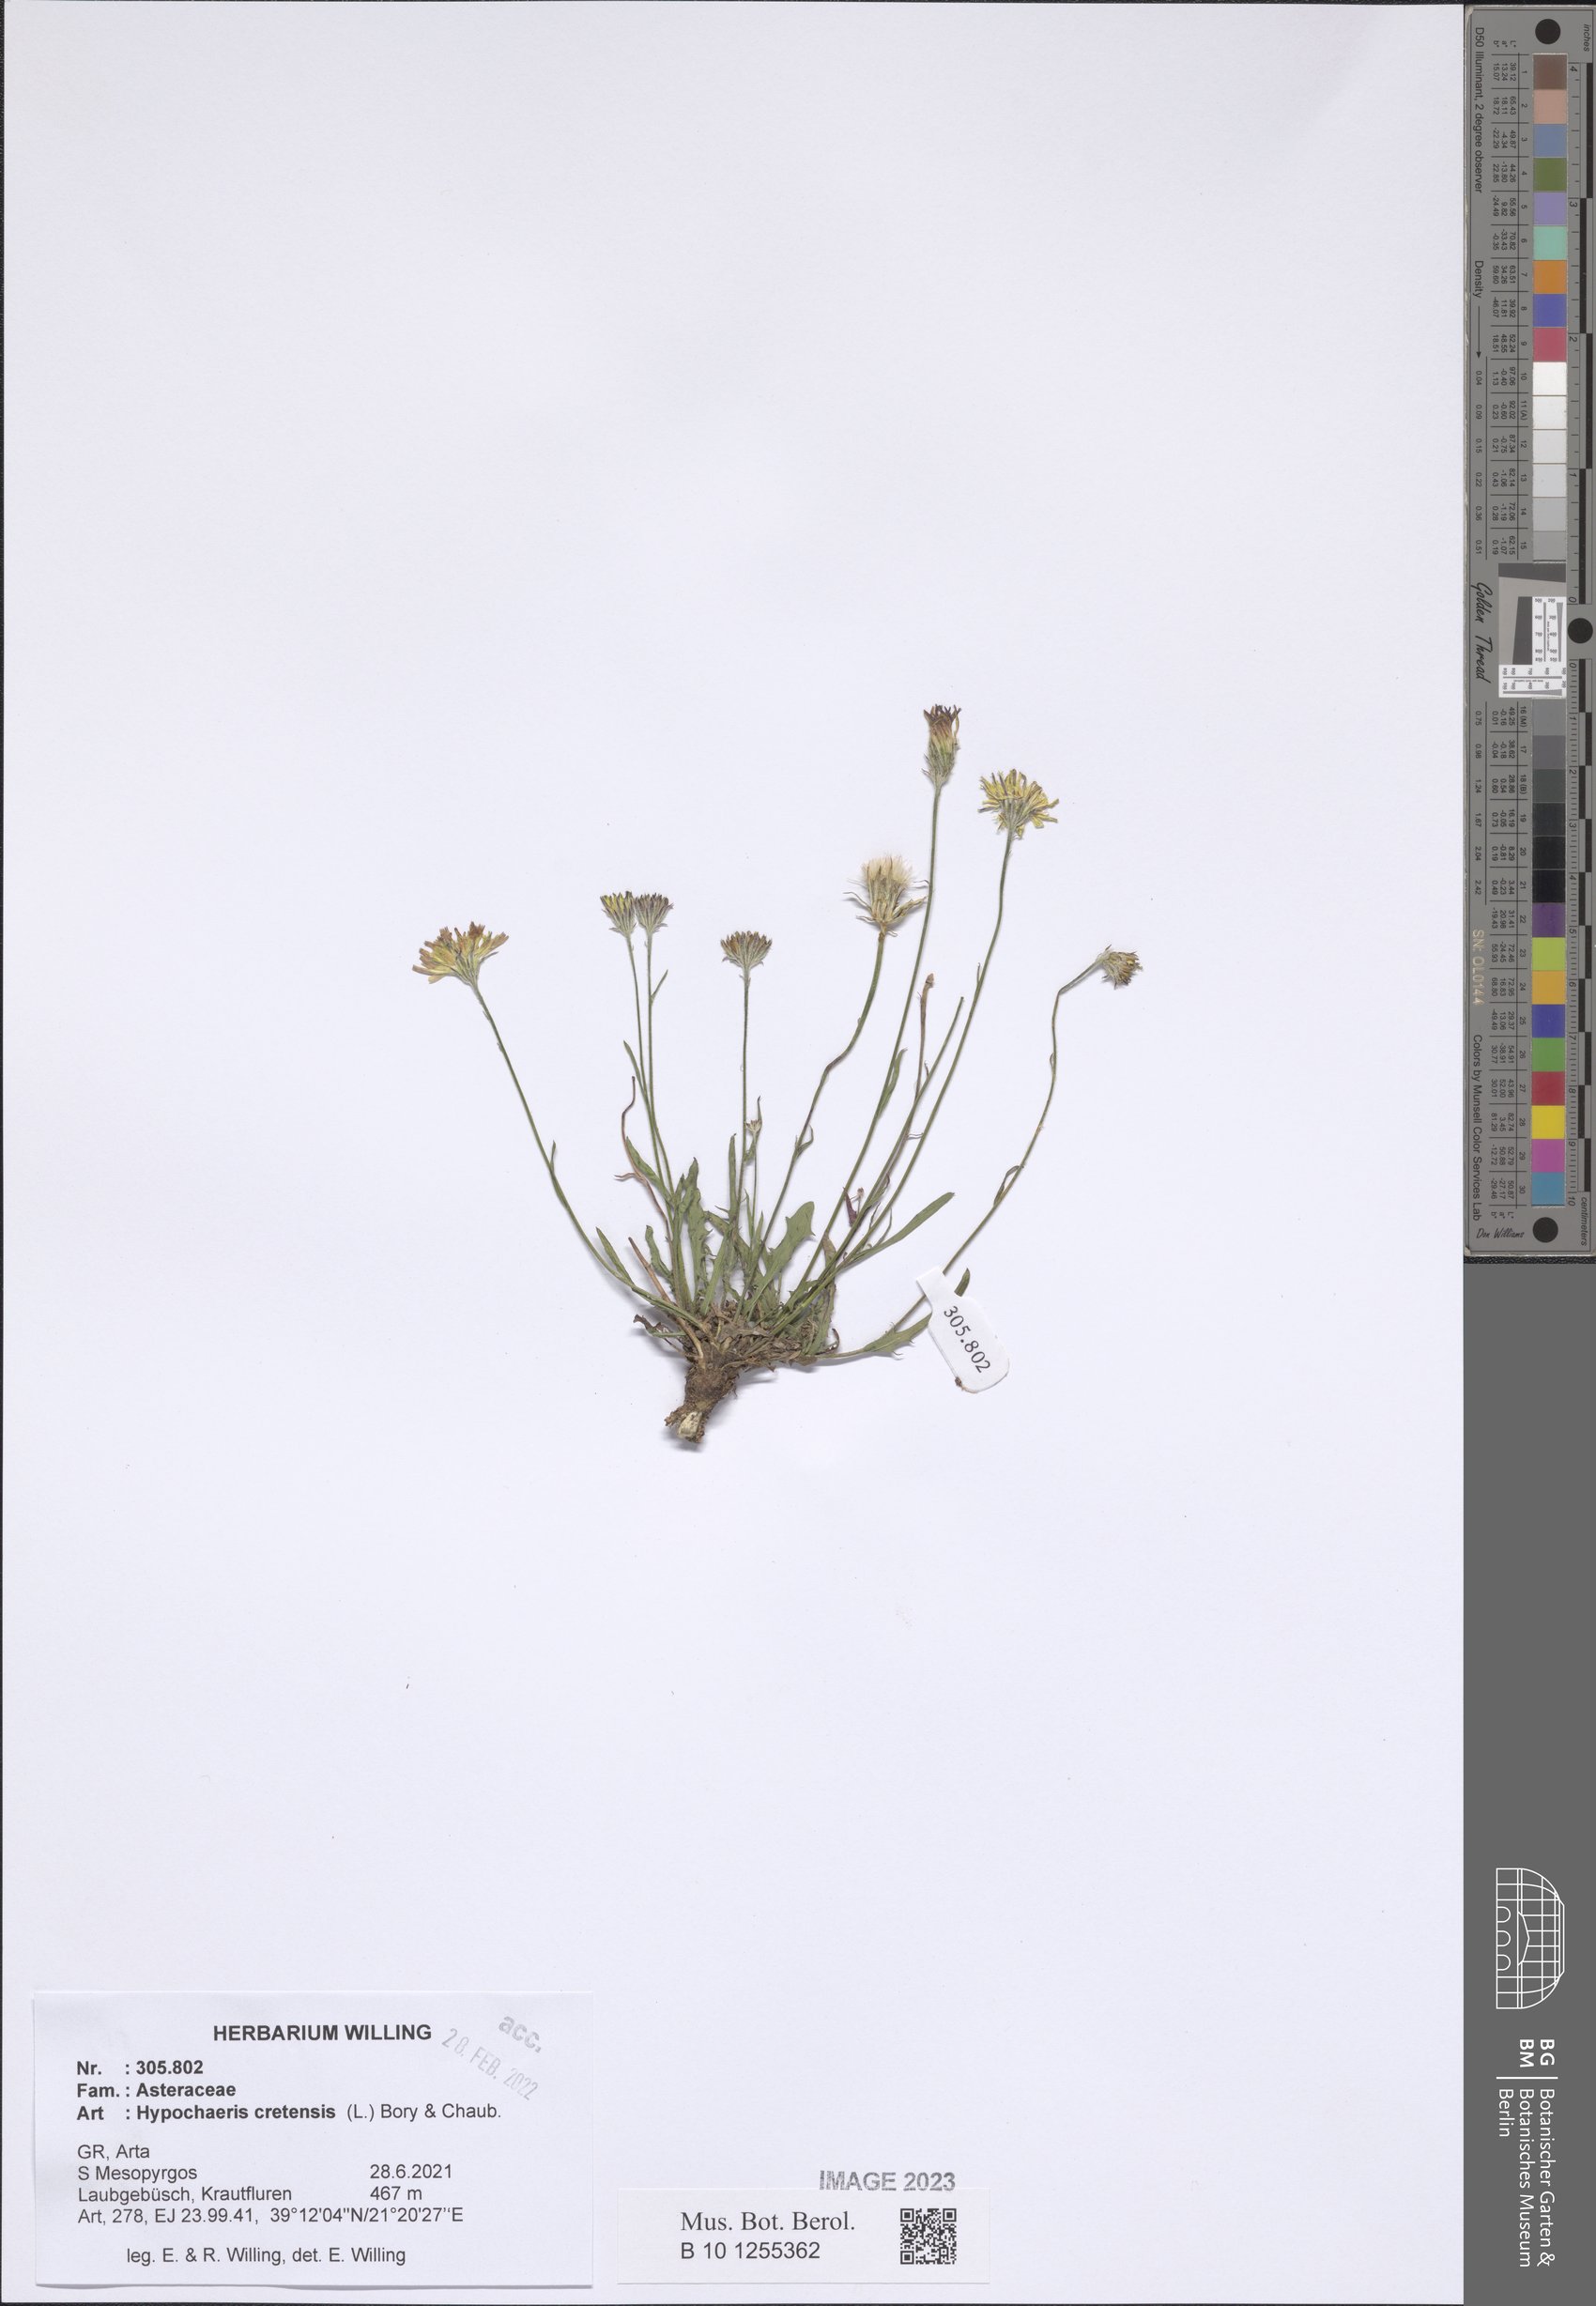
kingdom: Plantae
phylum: Tracheophyta
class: Magnoliopsida
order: Asterales
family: Asteraceae
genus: Hypochaeris
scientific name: Hypochaeris cretensis
